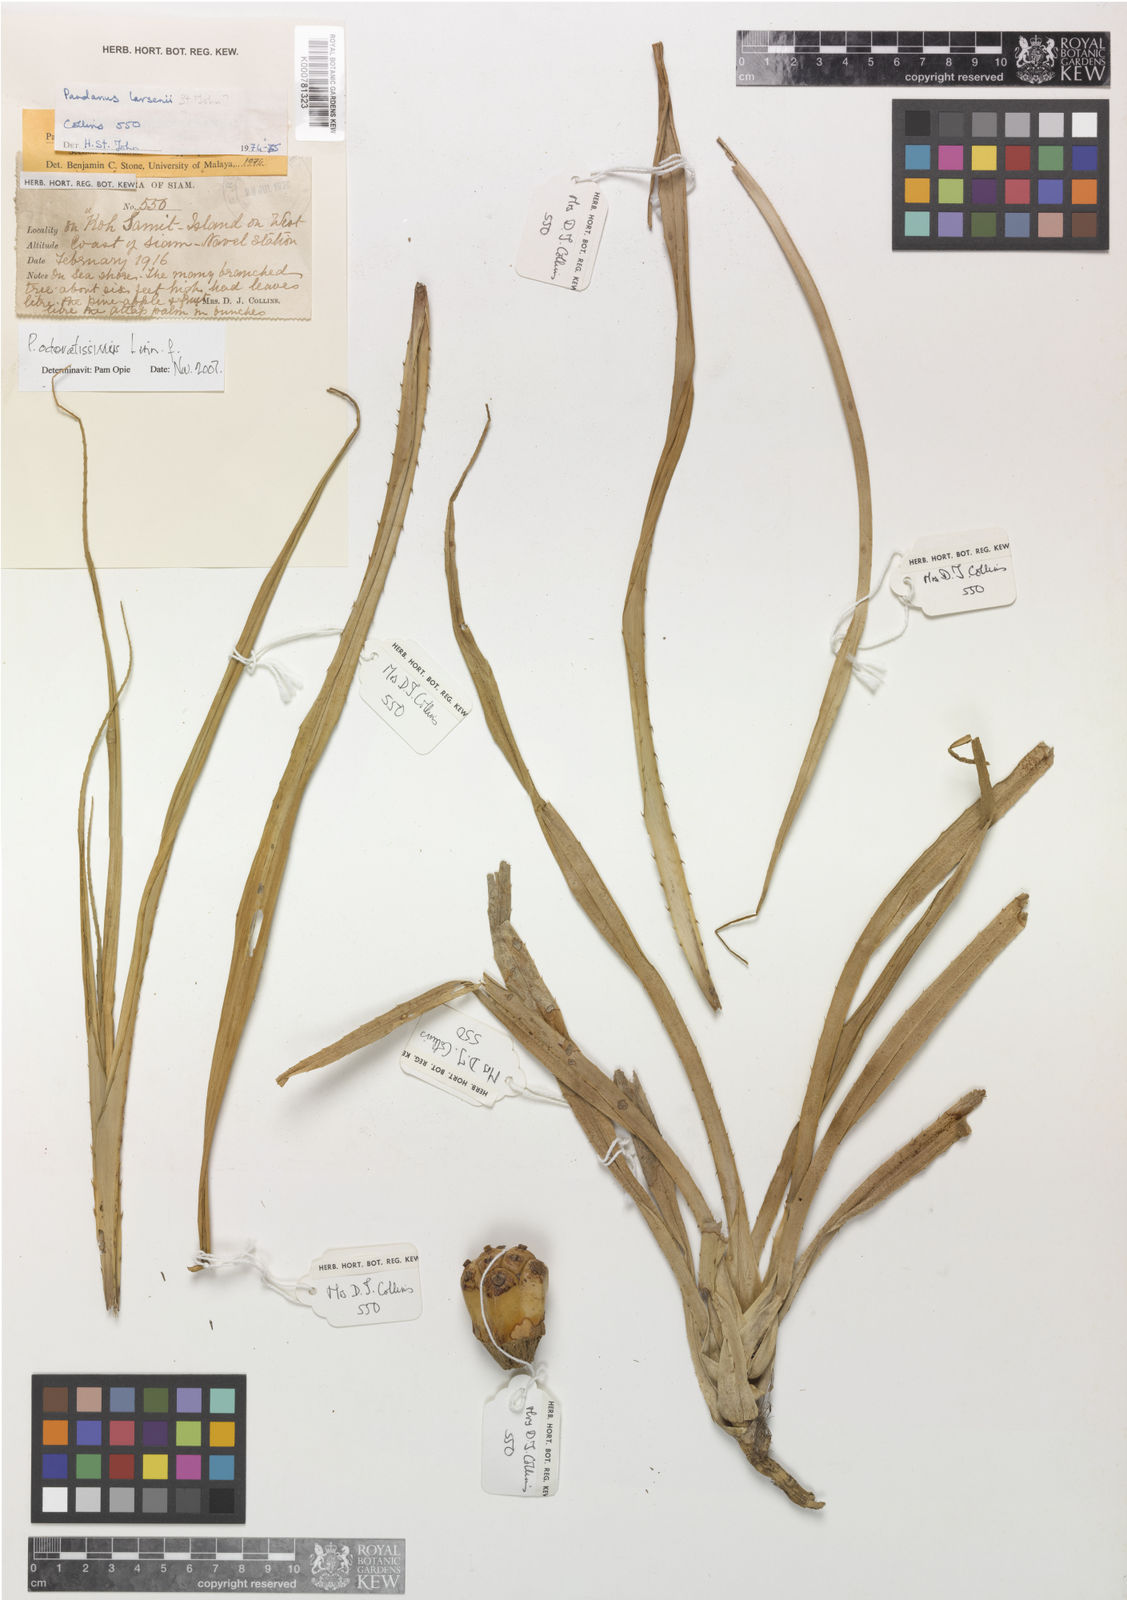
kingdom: Plantae
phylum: Tracheophyta
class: Liliopsida
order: Pandanales
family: Pandanaceae
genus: Pandanus
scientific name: Pandanus odorifer
